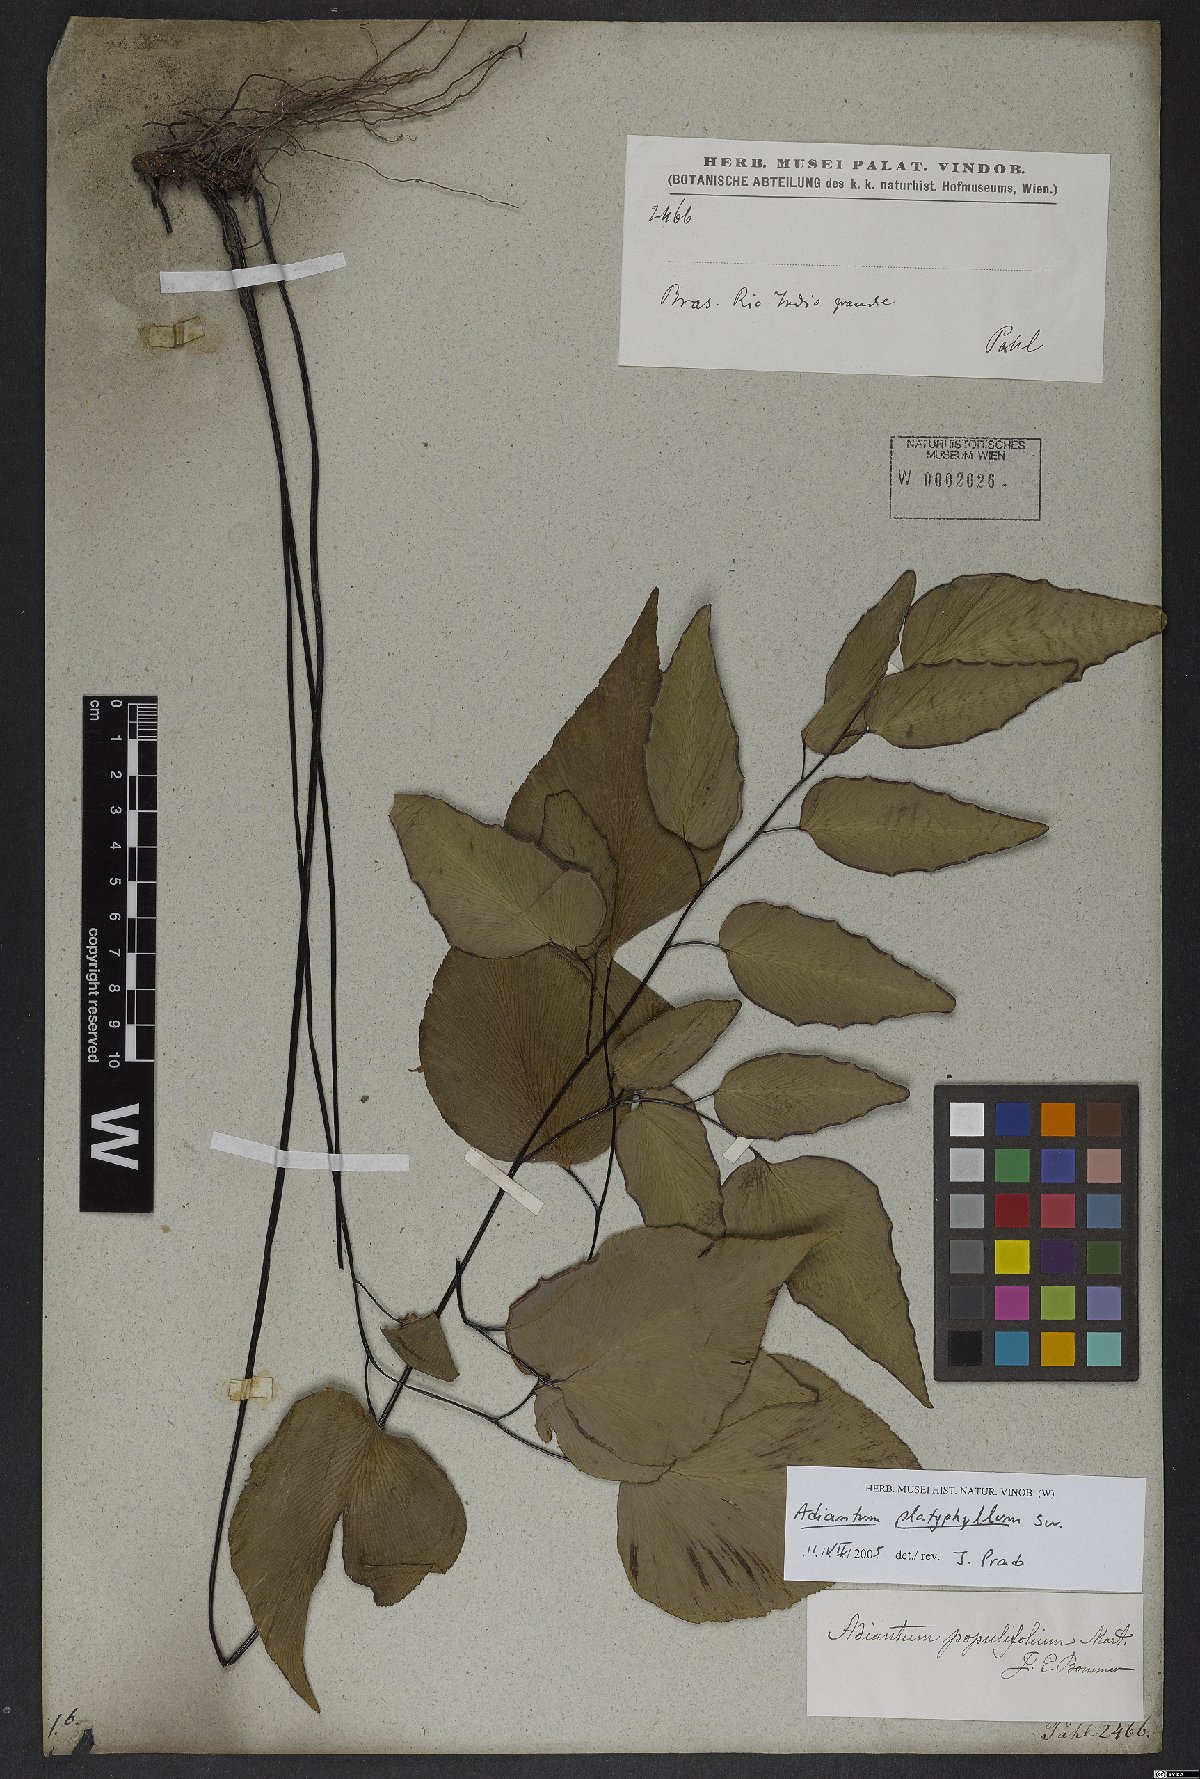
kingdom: Plantae
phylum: Tracheophyta
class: Polypodiopsida
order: Polypodiales
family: Pteridaceae
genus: Adiantum
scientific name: Adiantum platyphyllum
